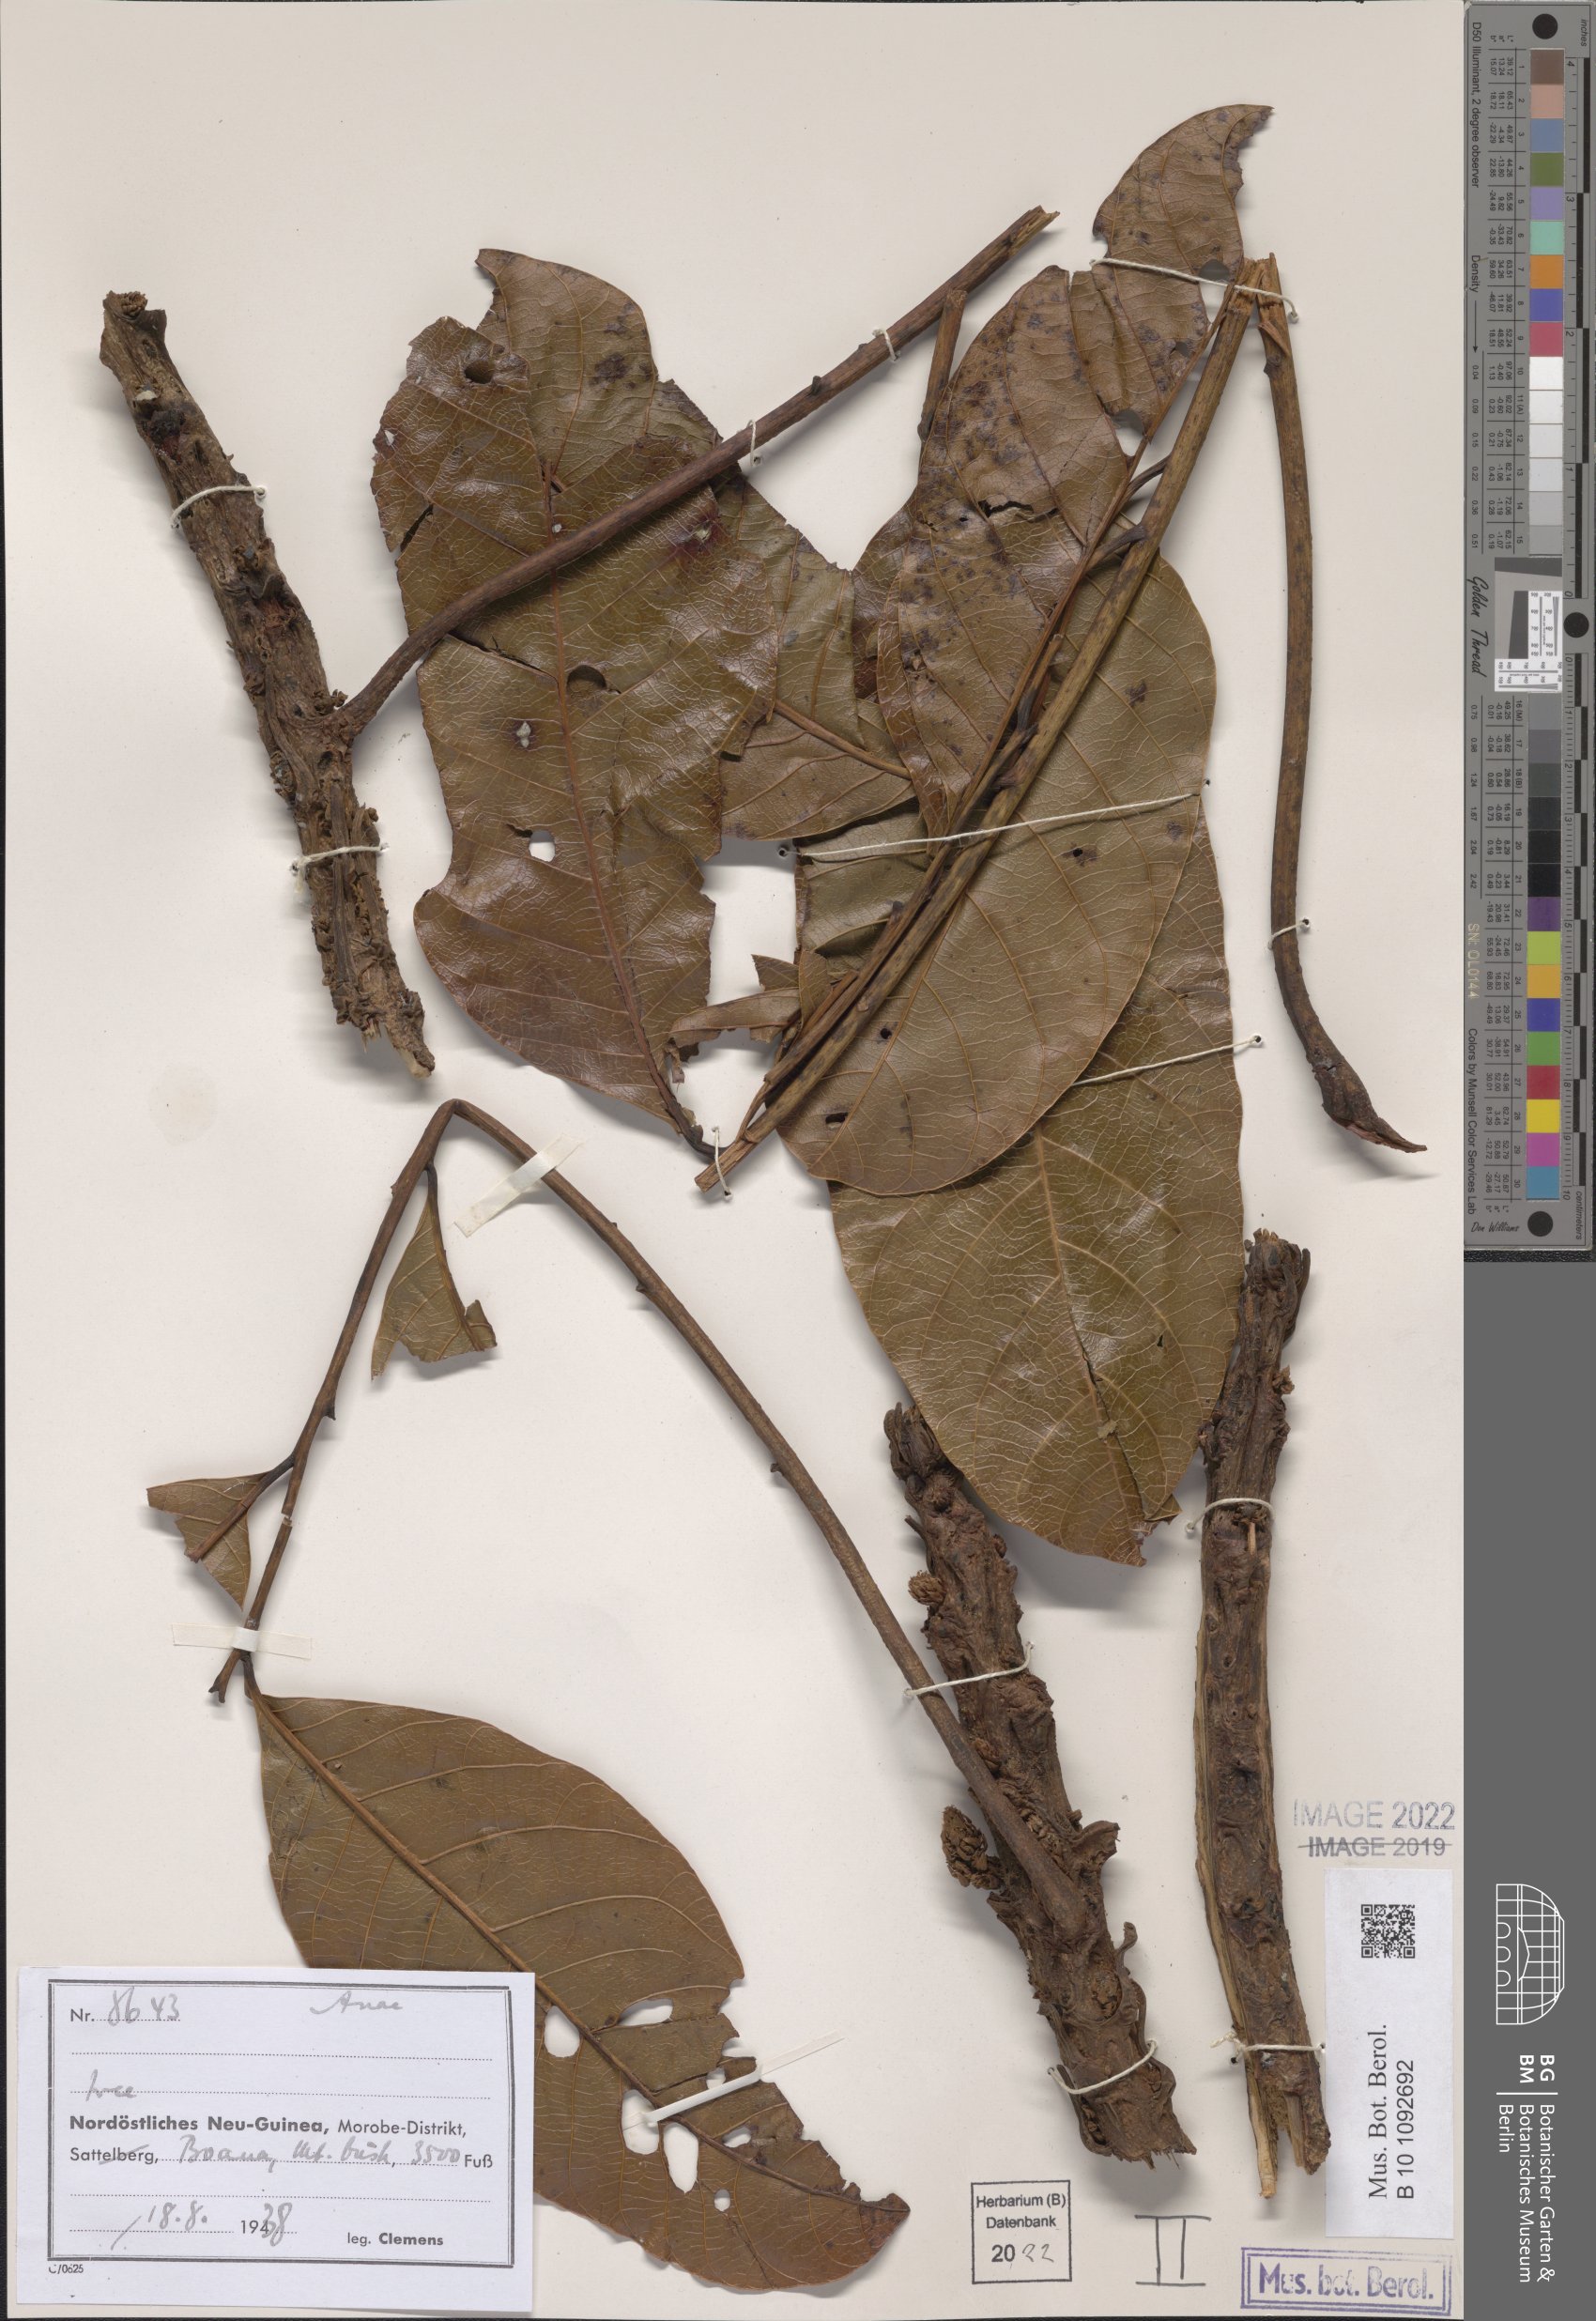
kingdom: Plantae
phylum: Tracheophyta
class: Magnoliopsida
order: Sapindales
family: Anacardiaceae
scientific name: Anacardiaceae
